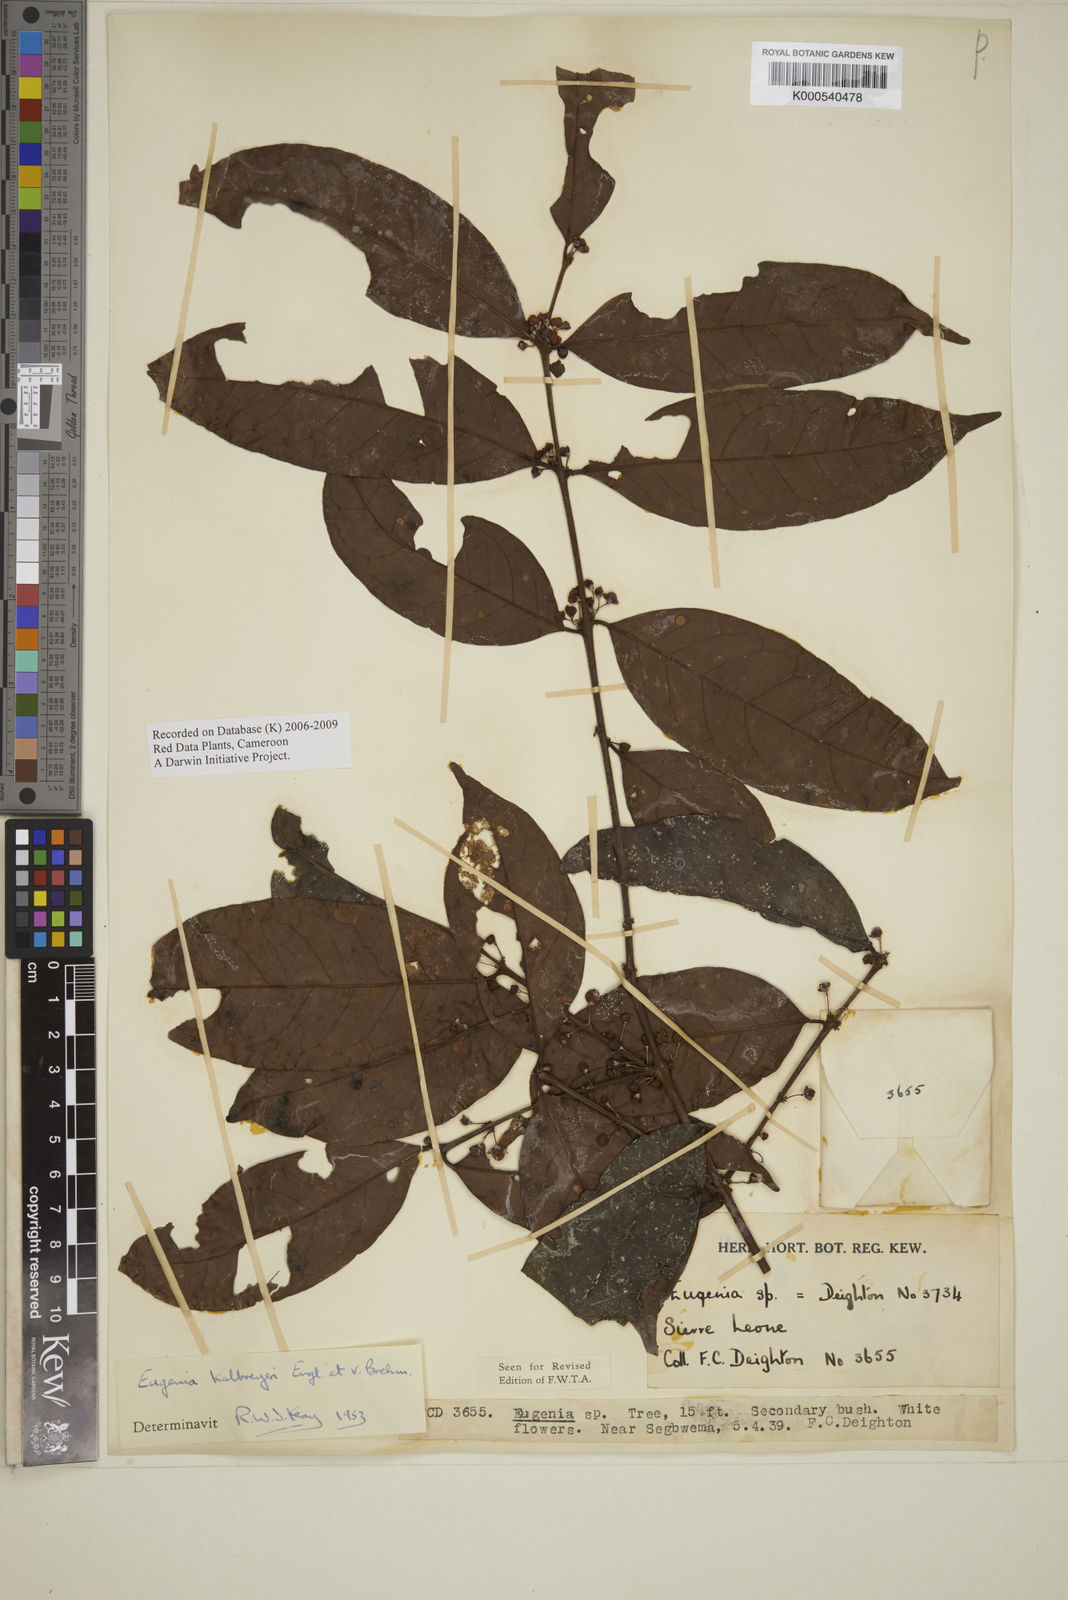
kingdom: Plantae
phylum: Tracheophyta
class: Magnoliopsida
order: Myrtales
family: Myrtaceae
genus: Eugenia
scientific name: Eugenia kalbreyeri
